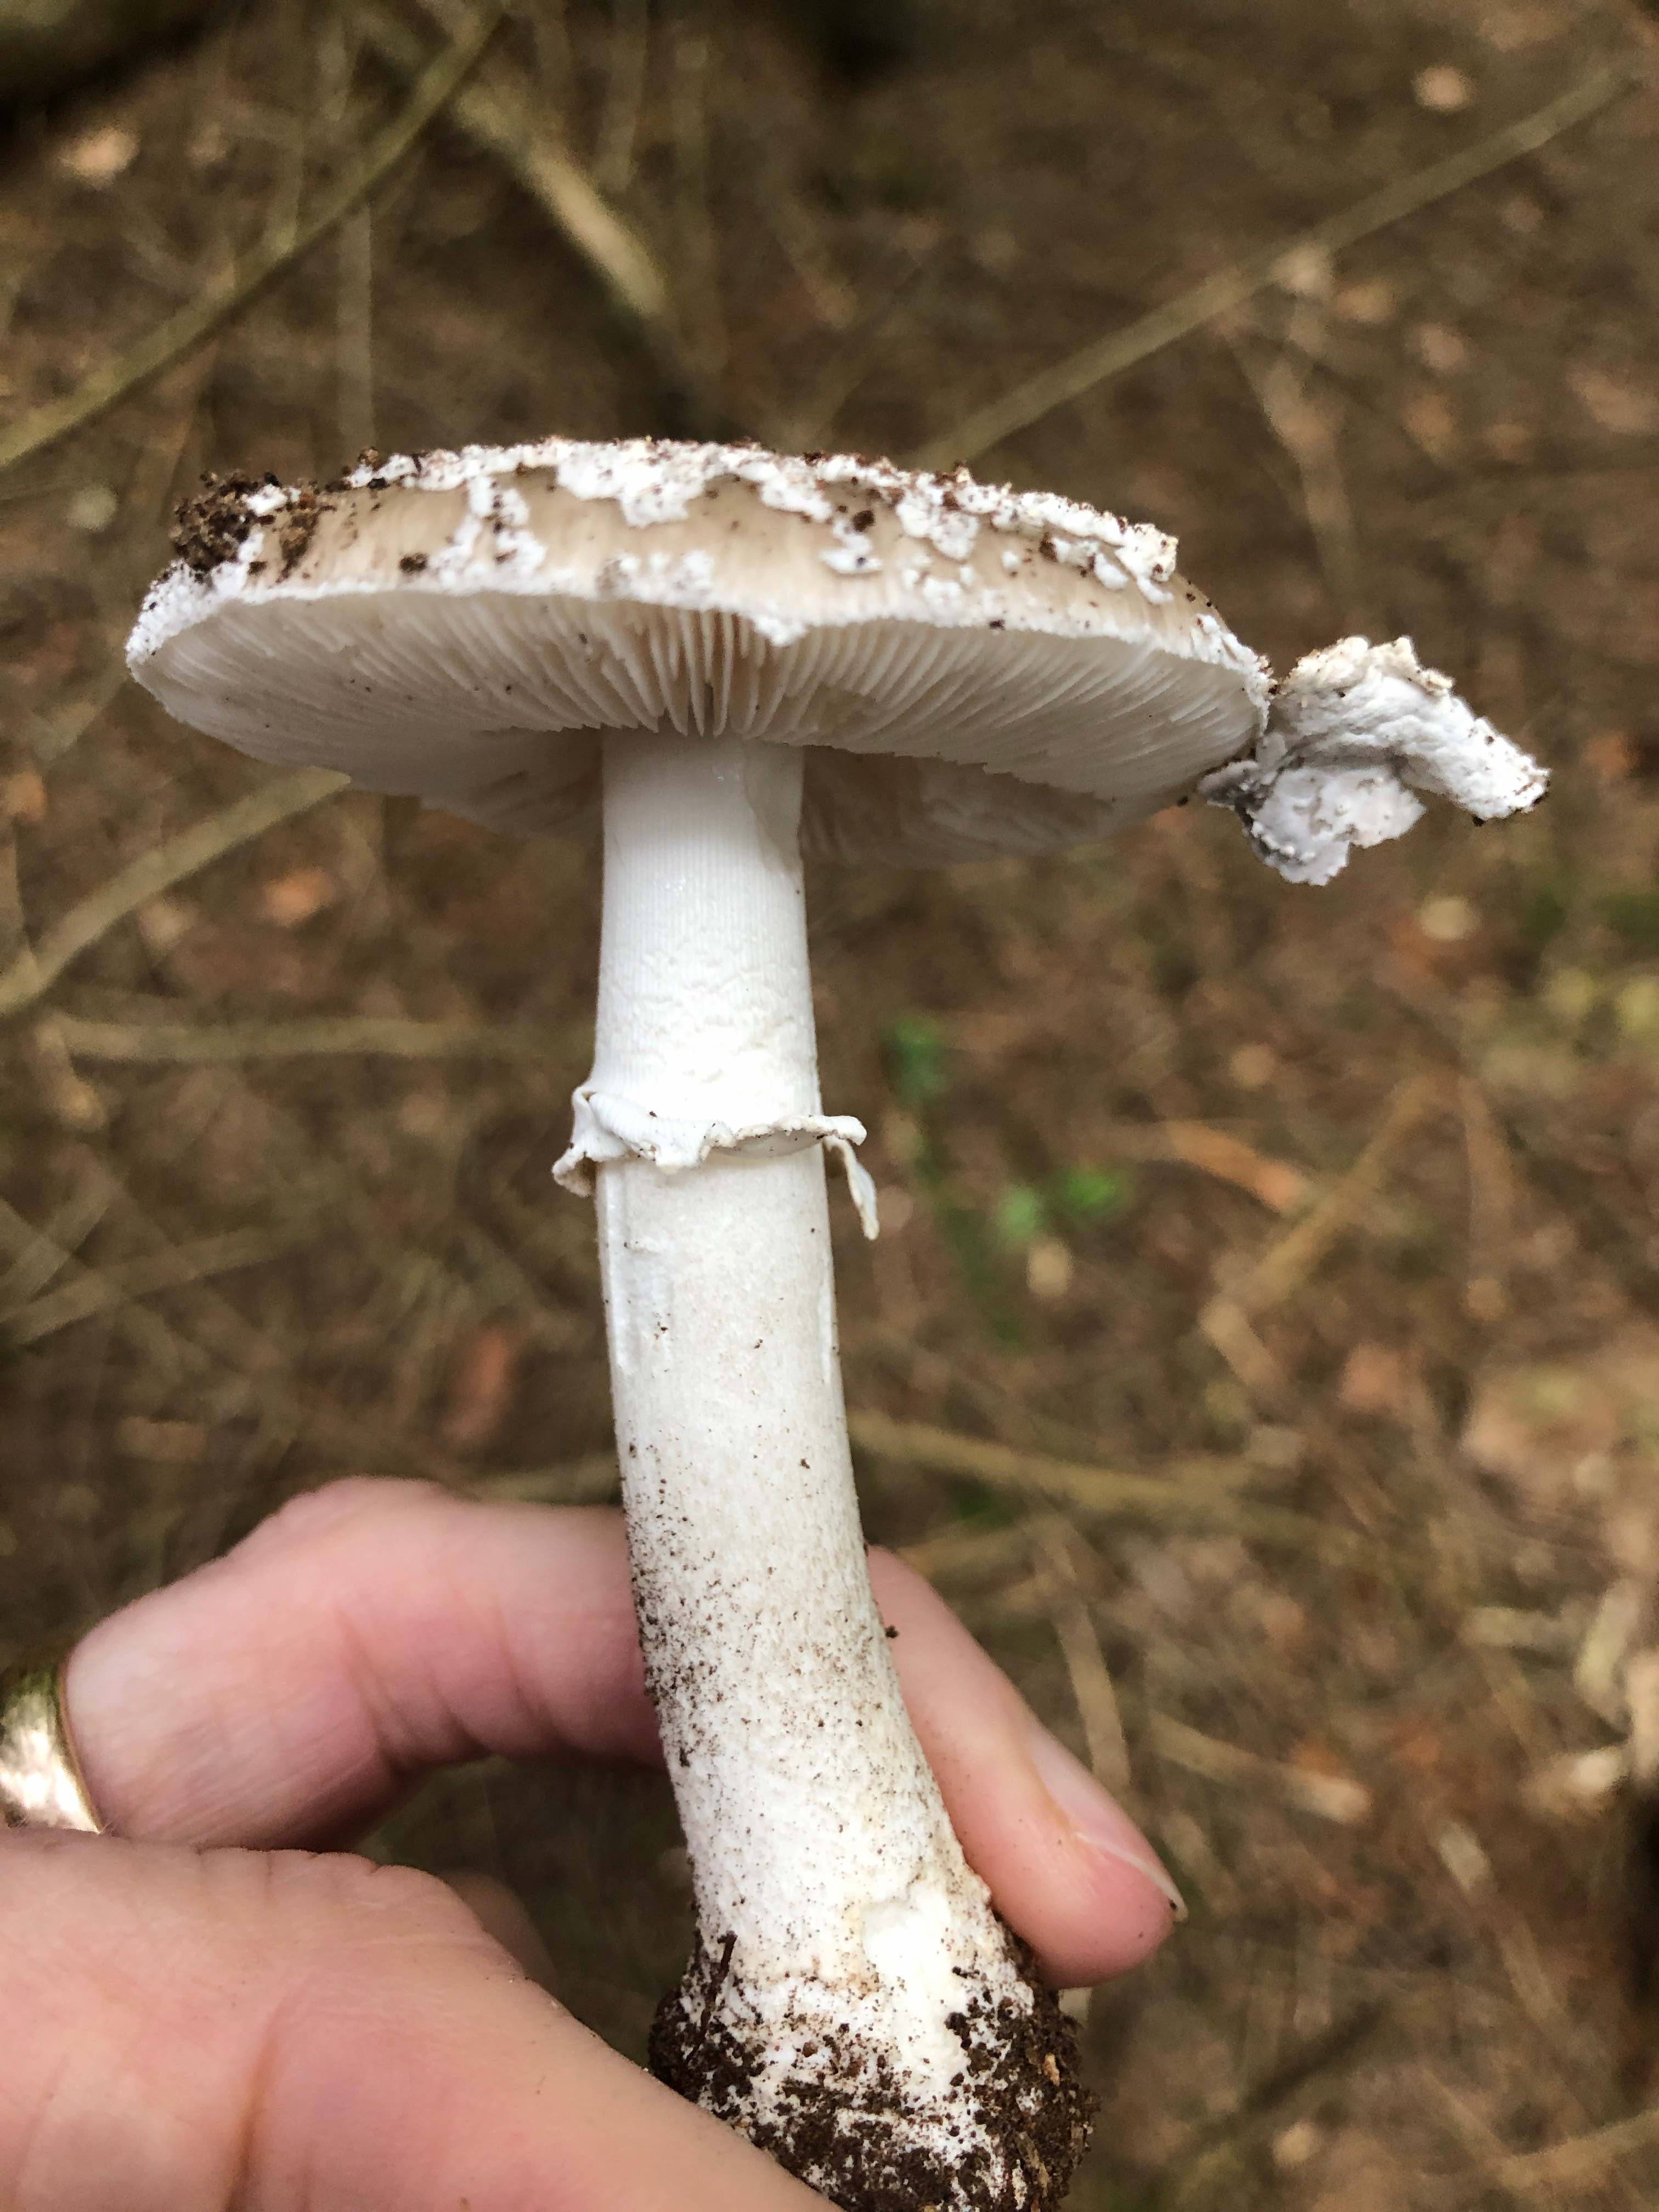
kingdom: Fungi
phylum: Basidiomycota
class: Agaricomycetes
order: Agaricales
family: Amanitaceae
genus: Amanita
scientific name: Amanita
